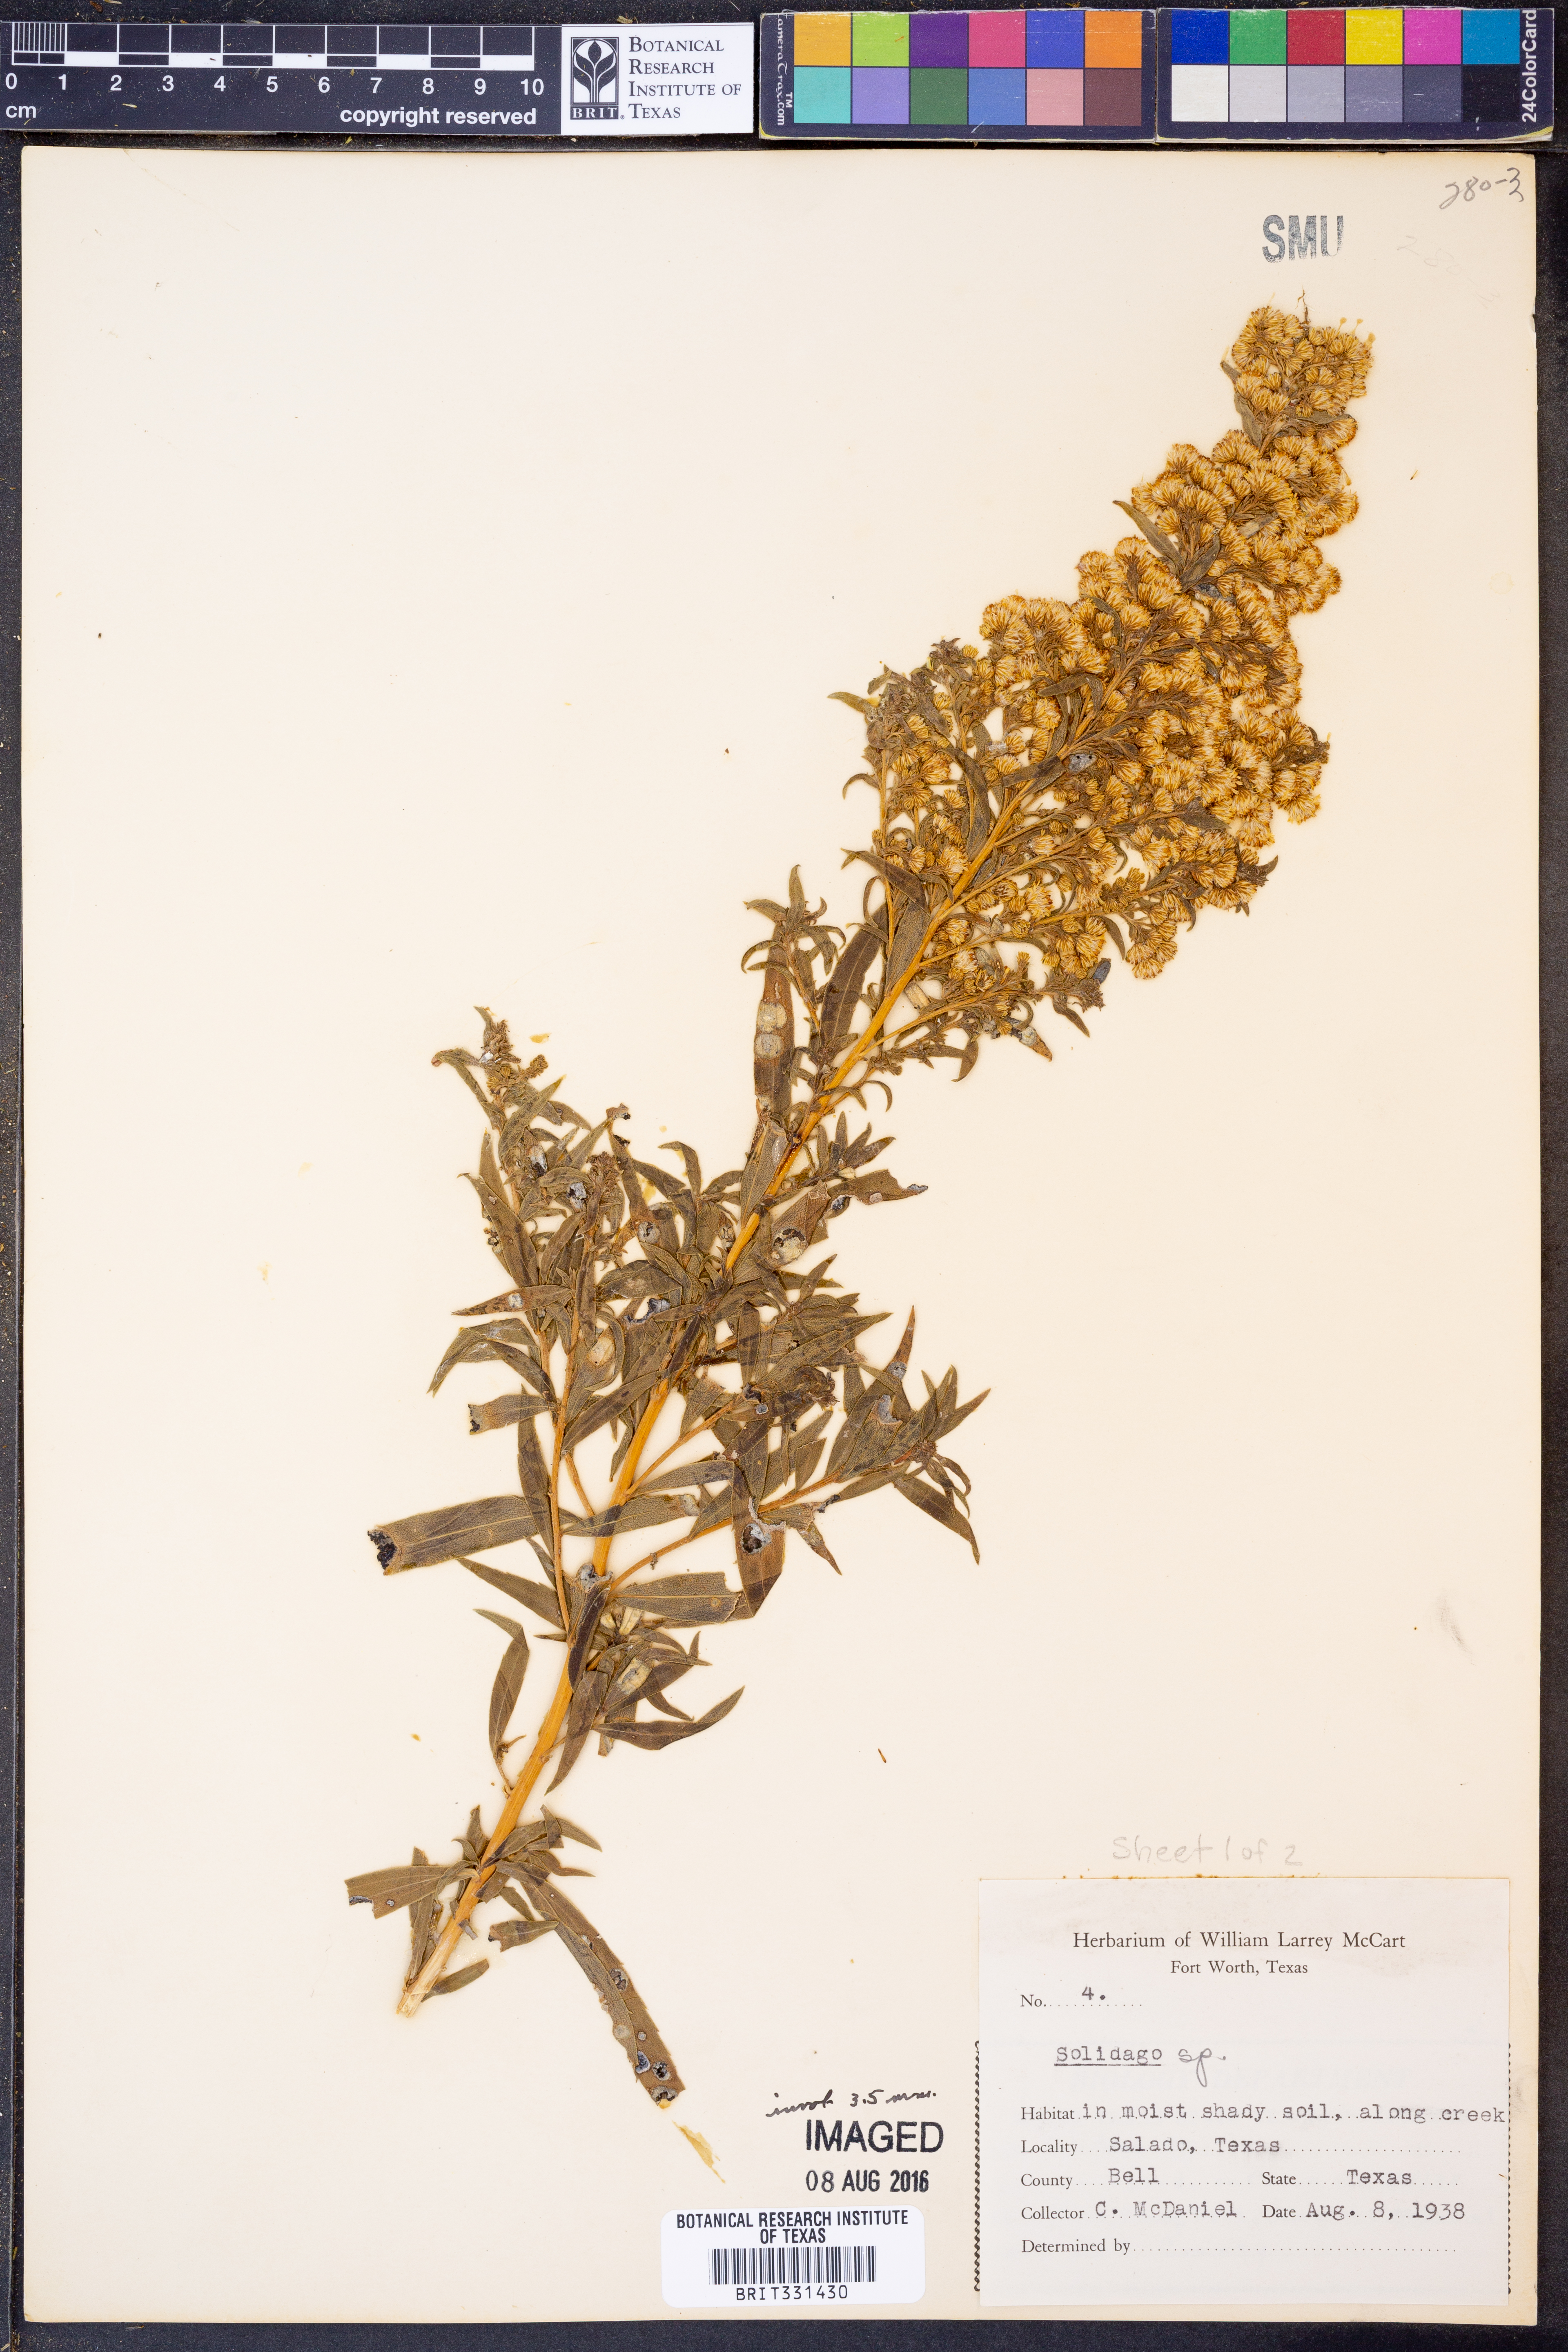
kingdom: Plantae
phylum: Tracheophyta
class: Magnoliopsida
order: Asterales
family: Asteraceae
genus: Solidago
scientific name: Solidago
